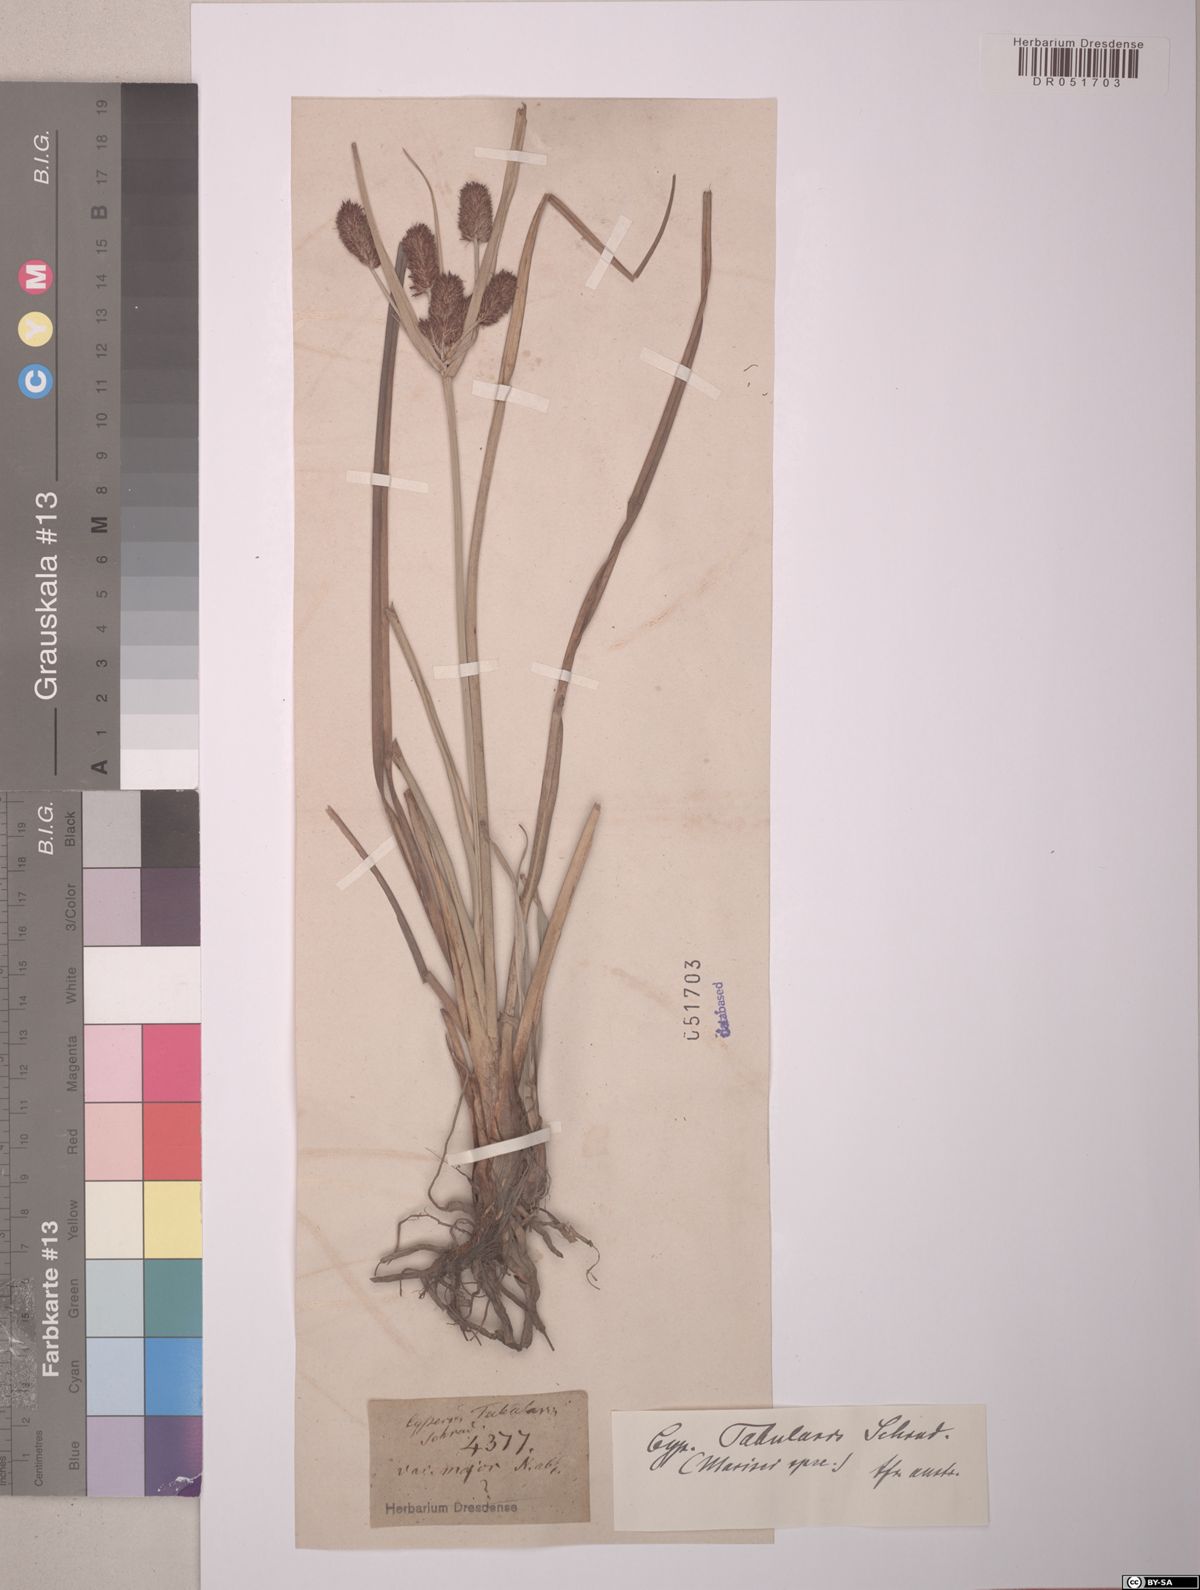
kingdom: Plantae
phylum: Tracheophyta
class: Liliopsida
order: Poales
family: Cyperaceae
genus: Cyperus
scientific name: Cyperus tabularis
